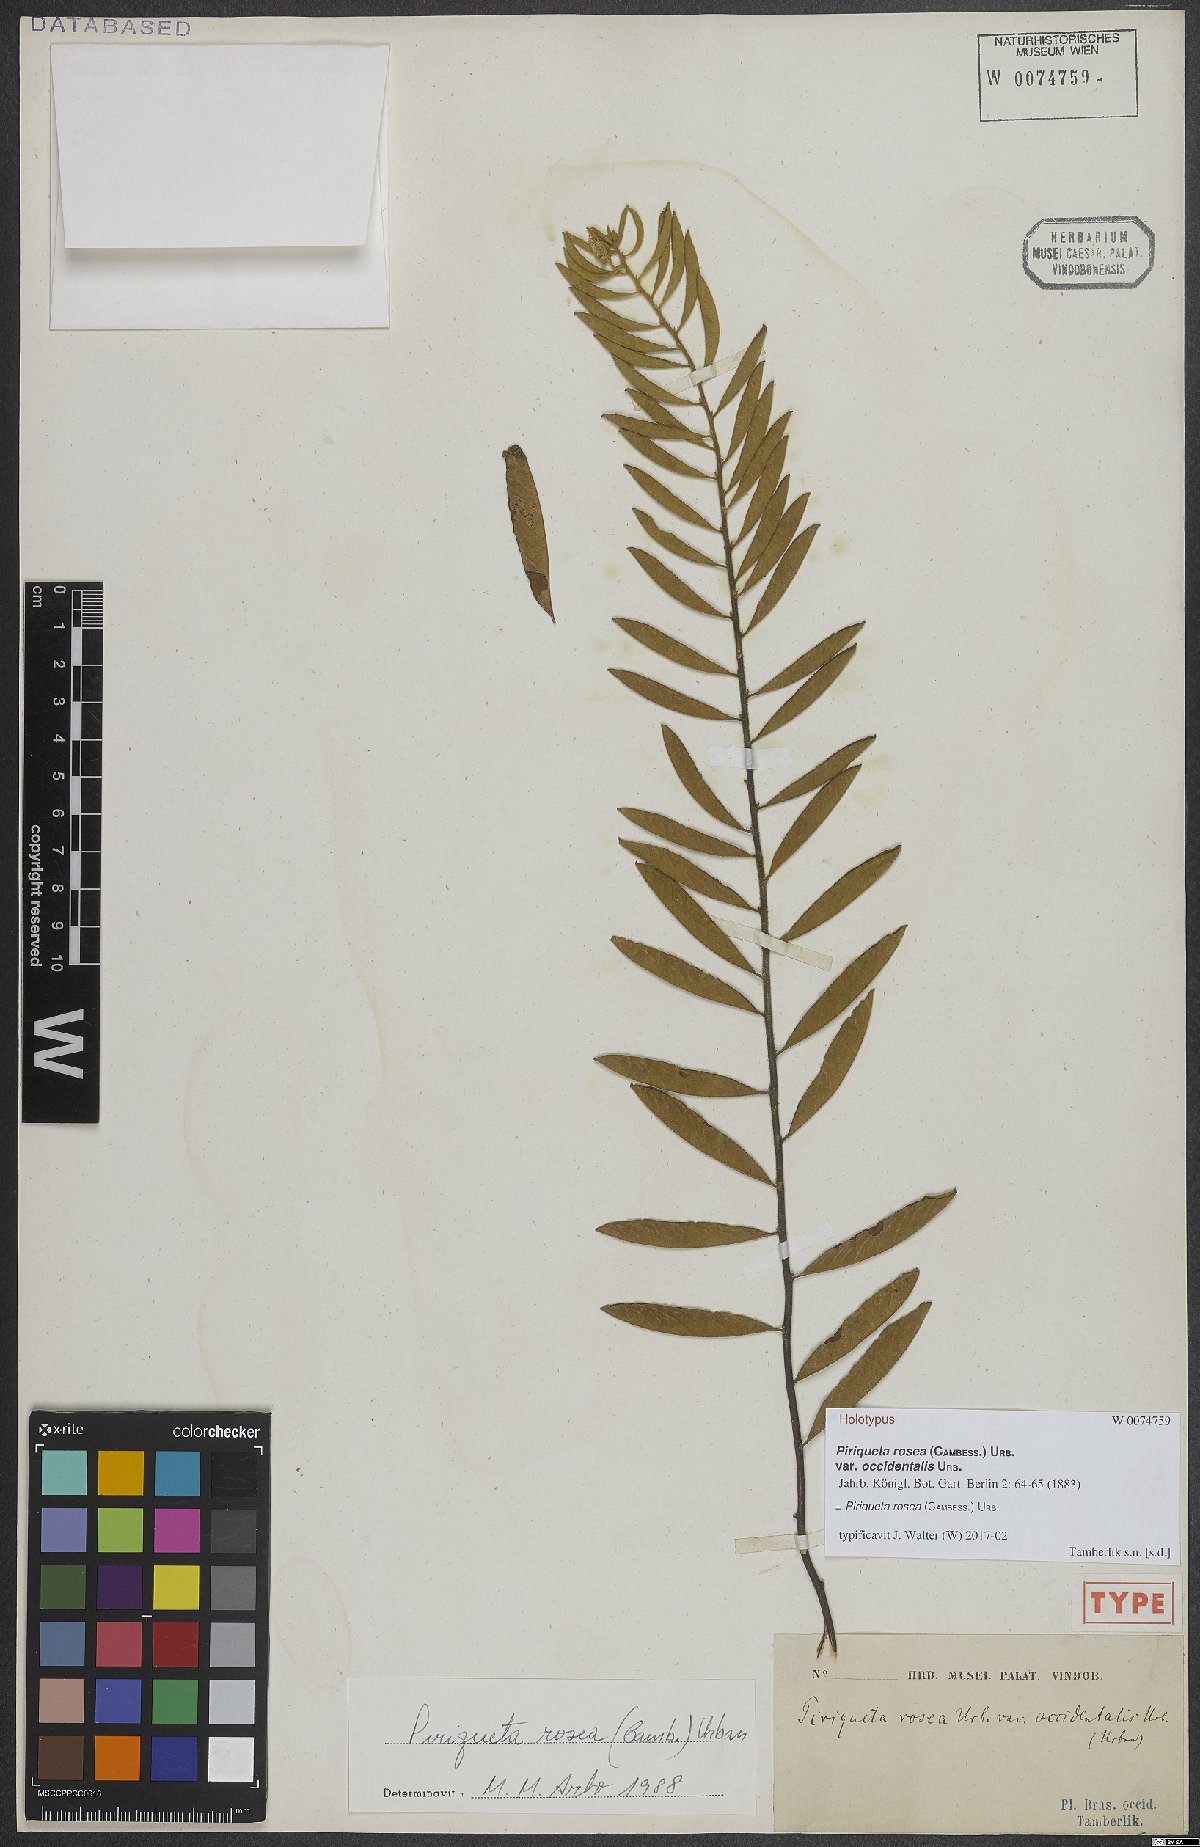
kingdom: Plantae
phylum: Tracheophyta
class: Magnoliopsida
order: Malpighiales
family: Turneraceae
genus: Piriqueta
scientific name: Piriqueta rosea
